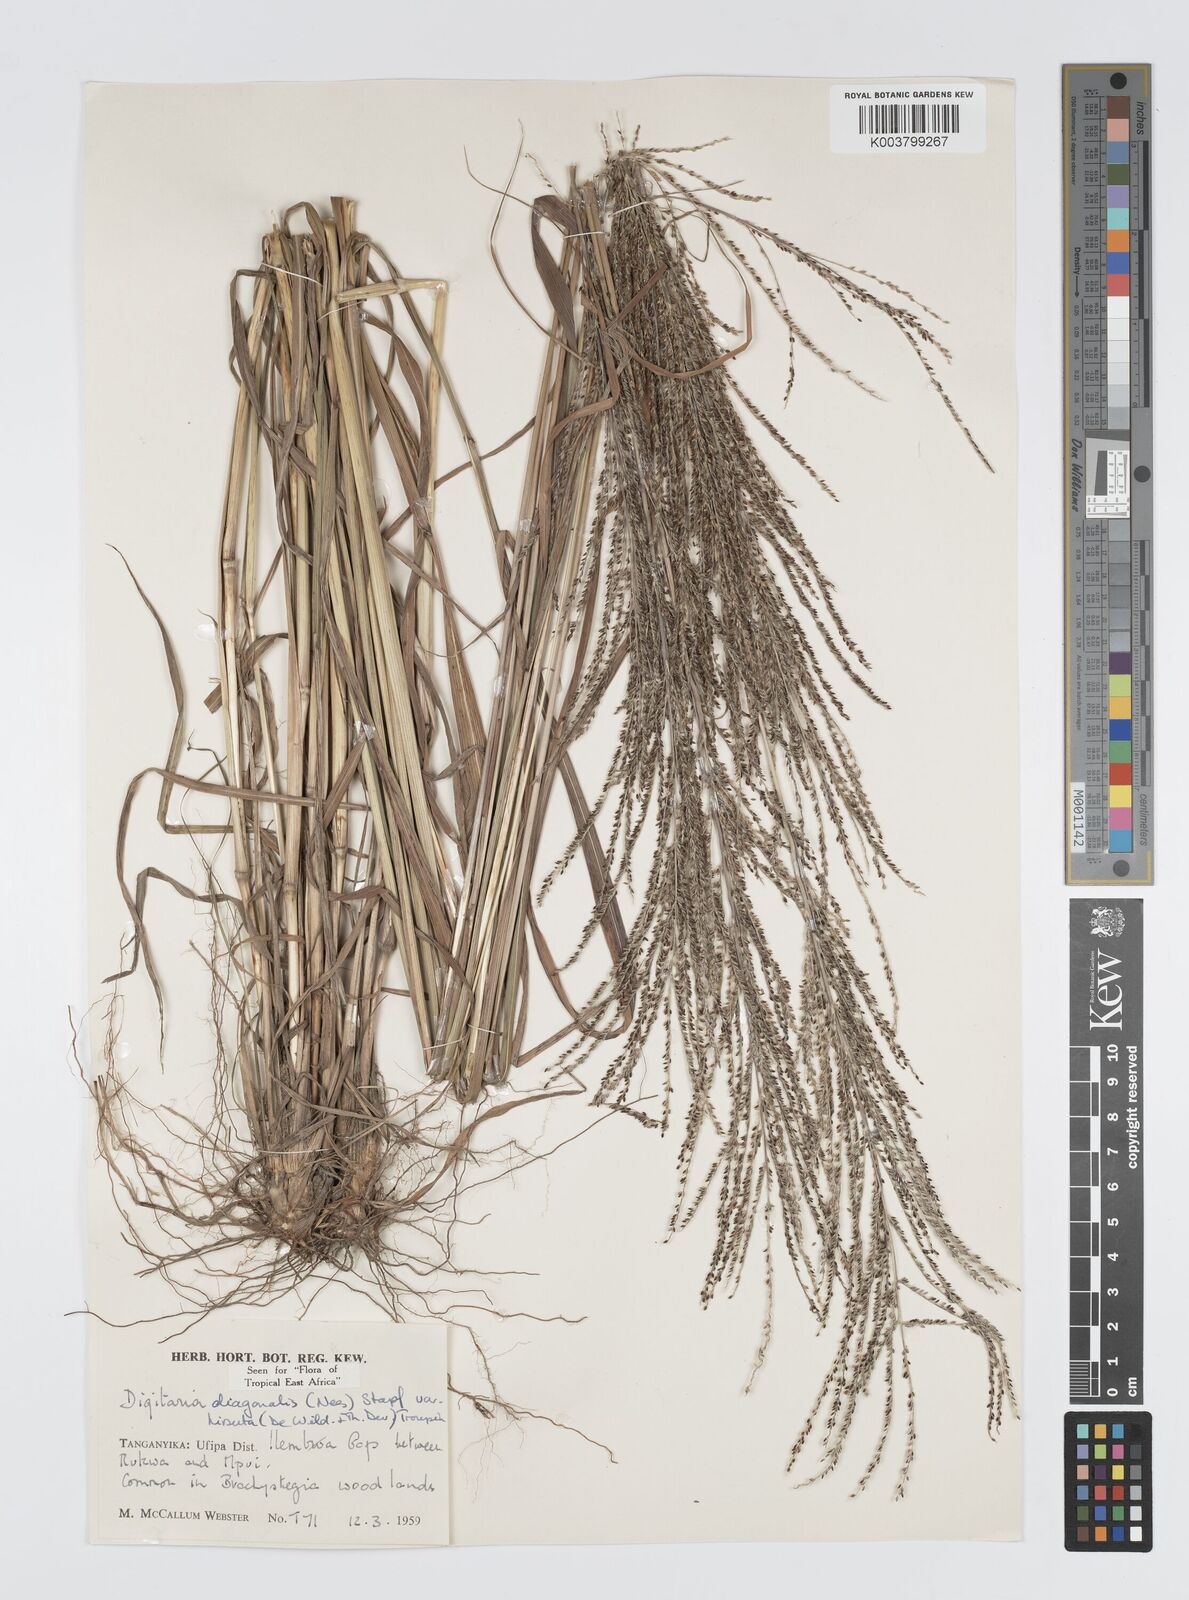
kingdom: Plantae
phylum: Tracheophyta
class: Liliopsida
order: Poales
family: Poaceae
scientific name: Poaceae
